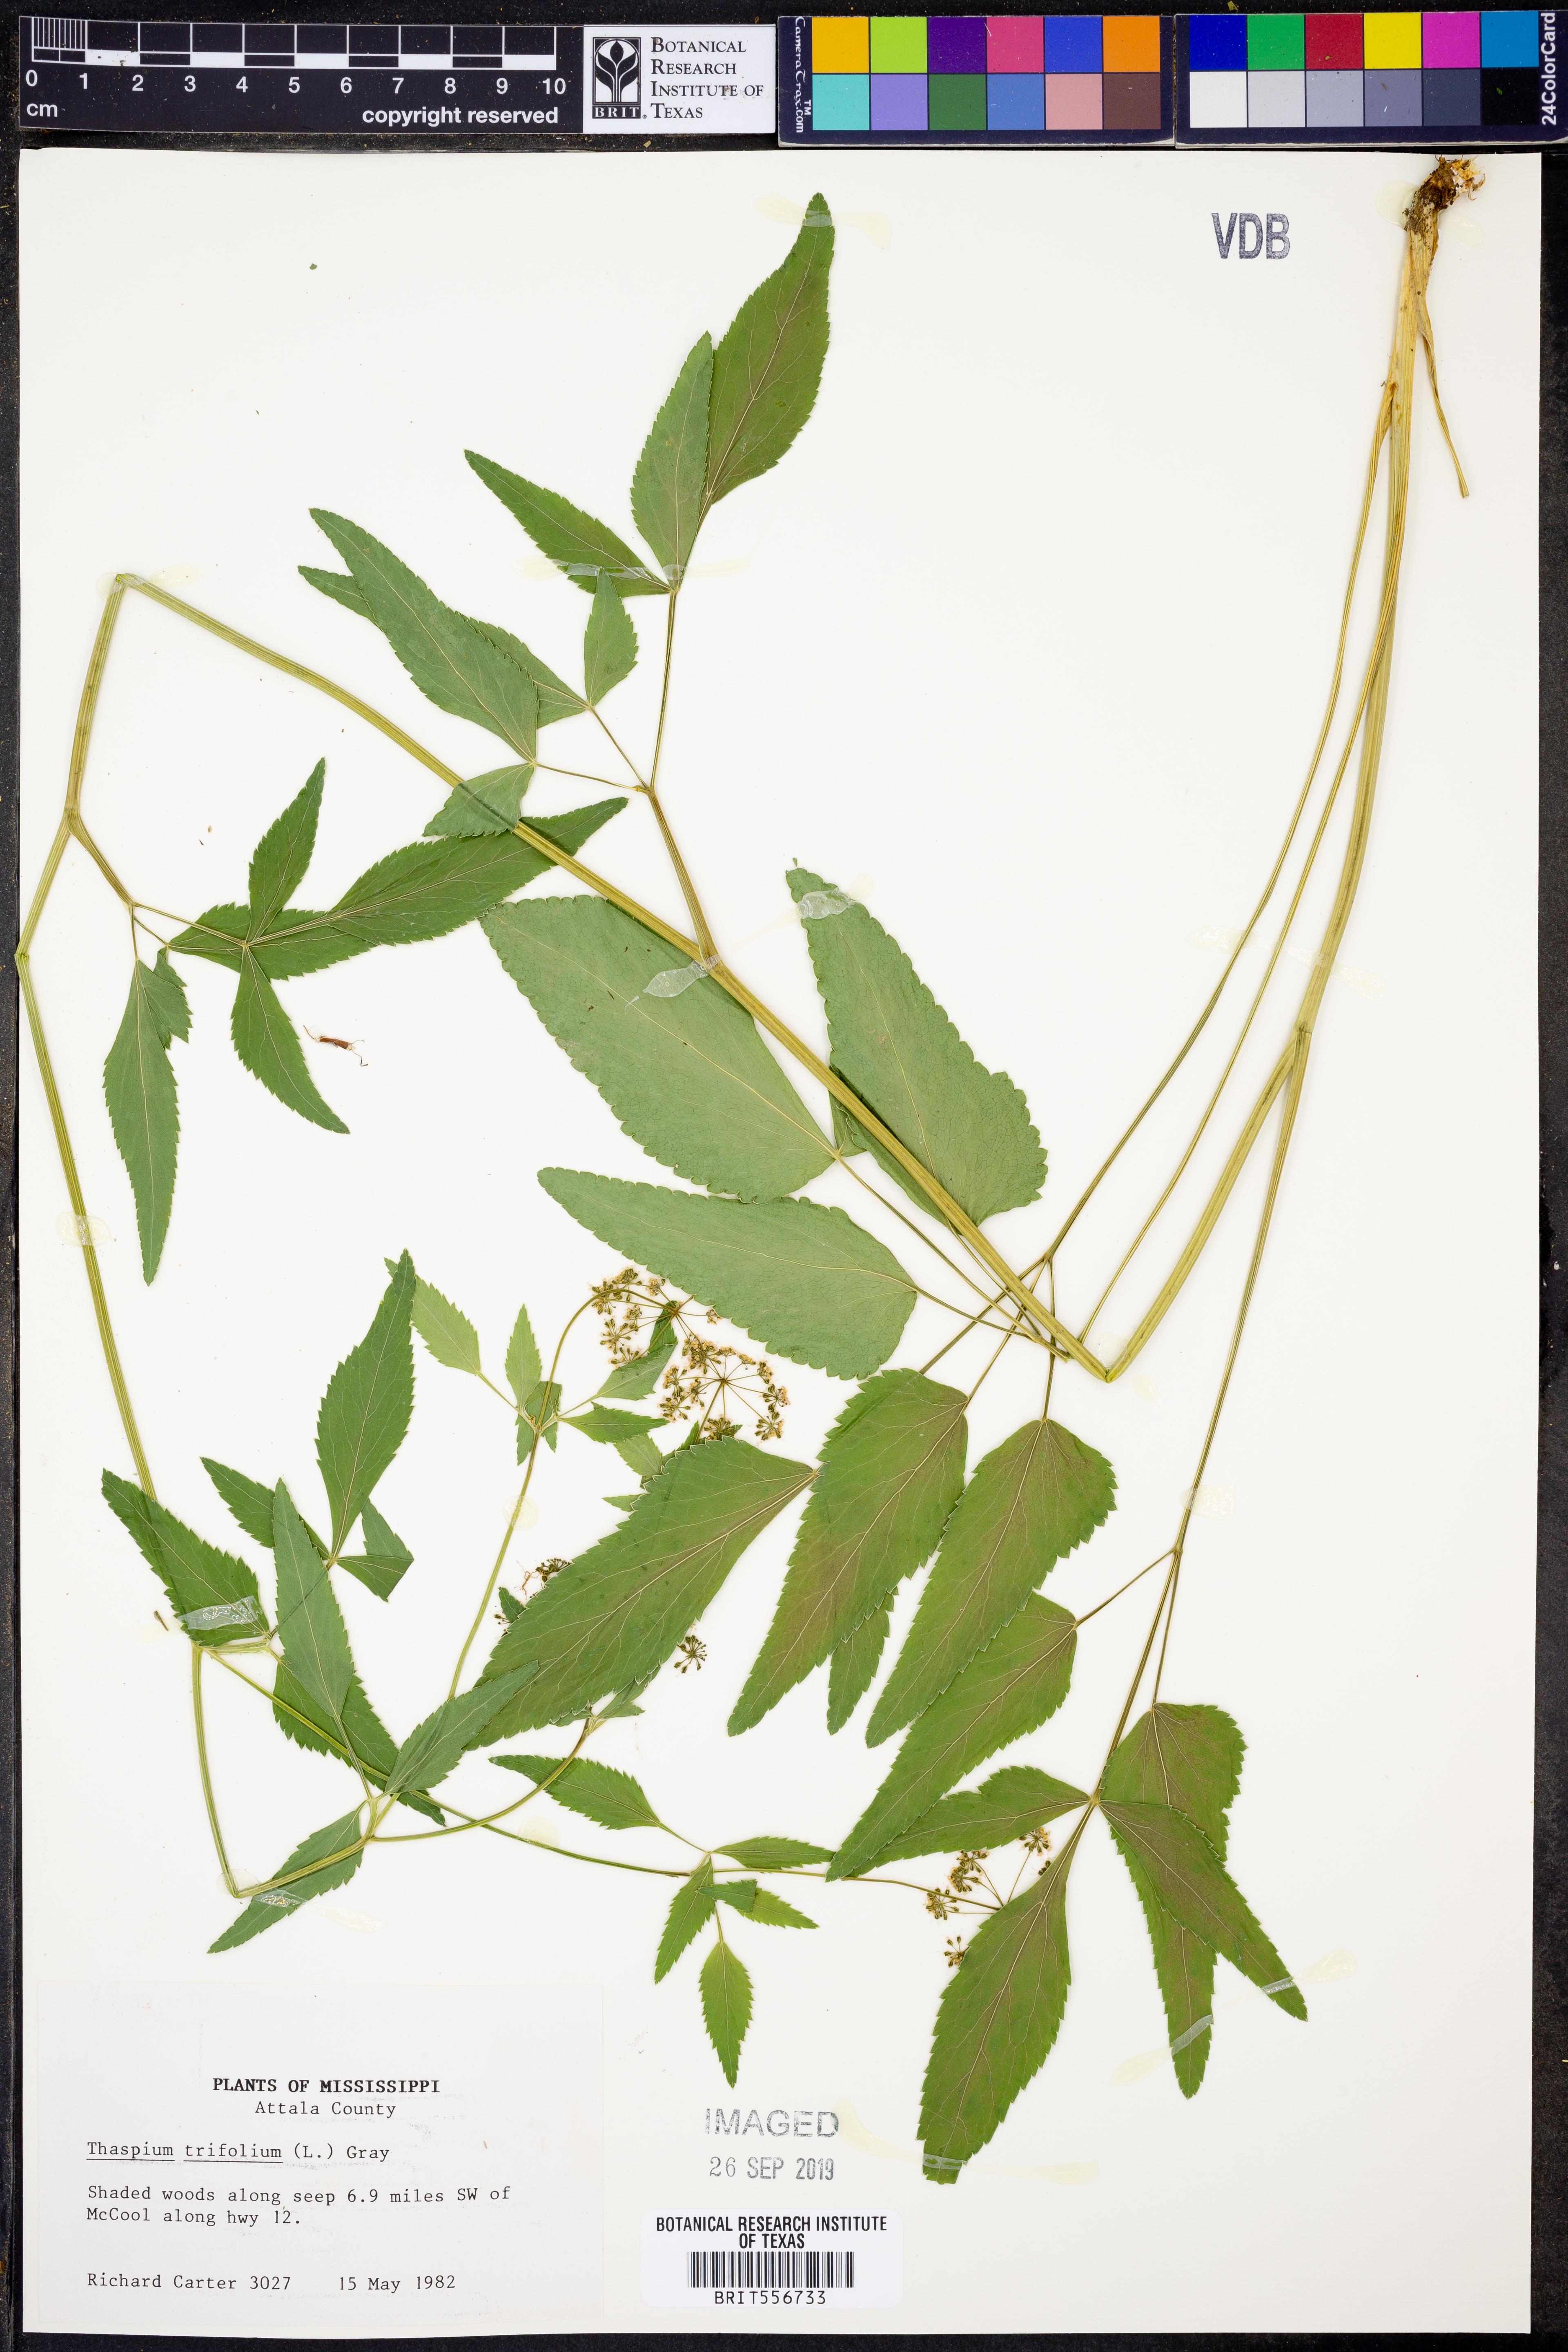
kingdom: Plantae
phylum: Tracheophyta
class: Magnoliopsida
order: Apiales
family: Apiaceae
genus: Thaspium
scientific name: Thaspium trifoliatum
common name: Purple meadow-parsnip
